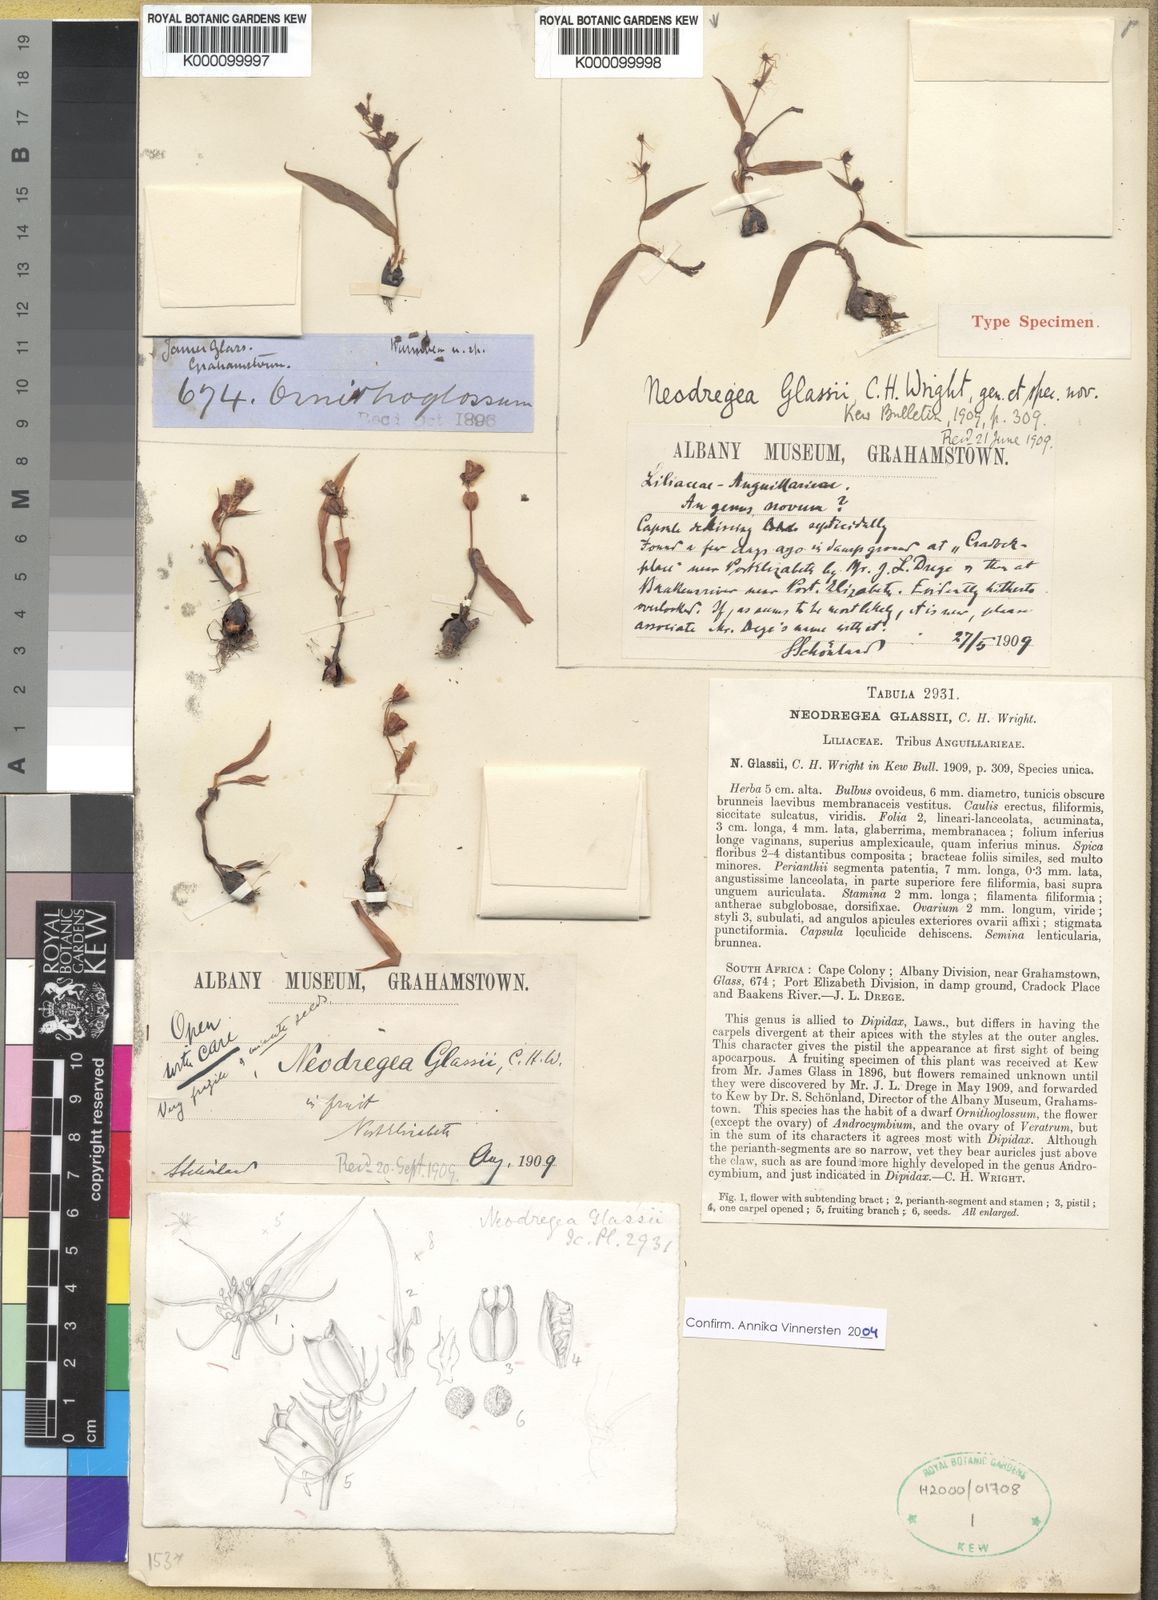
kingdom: Plantae
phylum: Tracheophyta
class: Liliopsida
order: Liliales
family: Colchicaceae
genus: Wurmbea
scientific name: Wurmbea glassii
